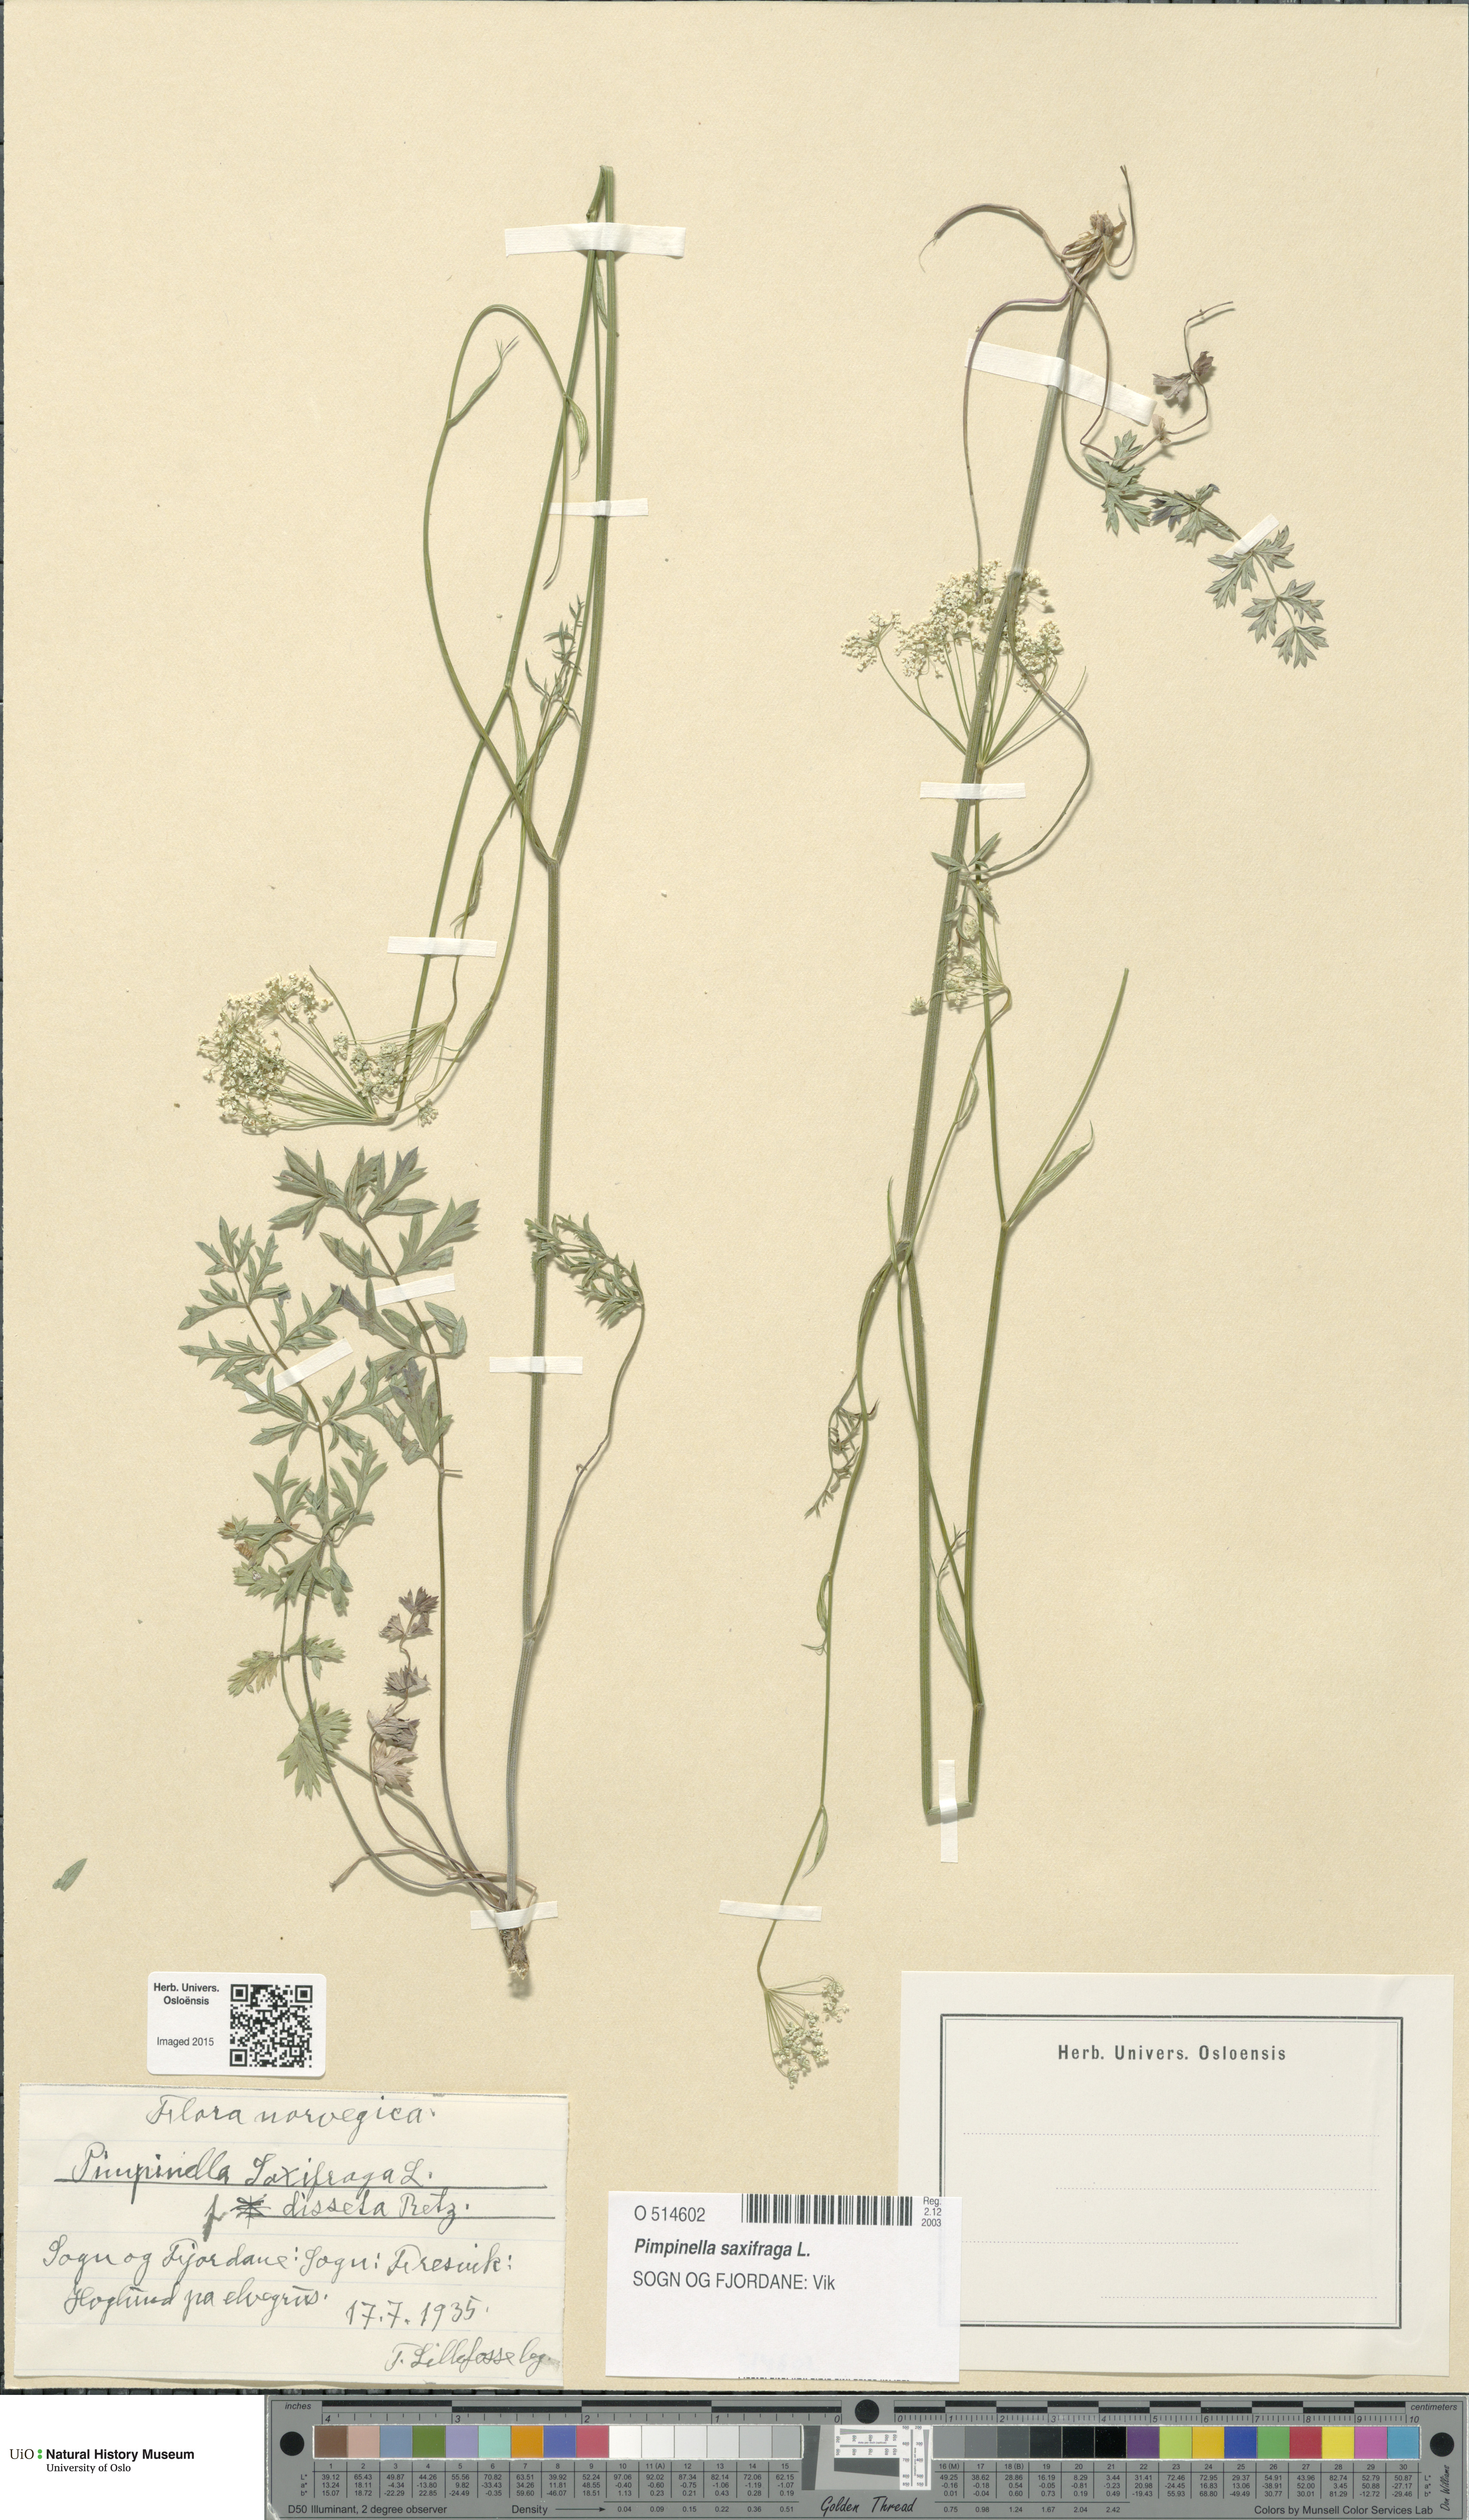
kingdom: Plantae
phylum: Tracheophyta
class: Magnoliopsida
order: Apiales
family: Apiaceae
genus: Pimpinella
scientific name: Pimpinella saxifraga
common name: Burnet-saxifrage
